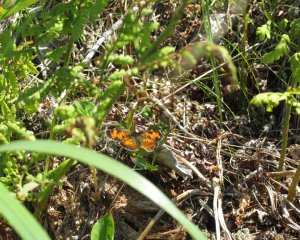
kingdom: Animalia
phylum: Arthropoda
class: Insecta
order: Lepidoptera
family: Nymphalidae
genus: Phyciodes
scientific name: Phyciodes tharos
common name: Northern Crescent
